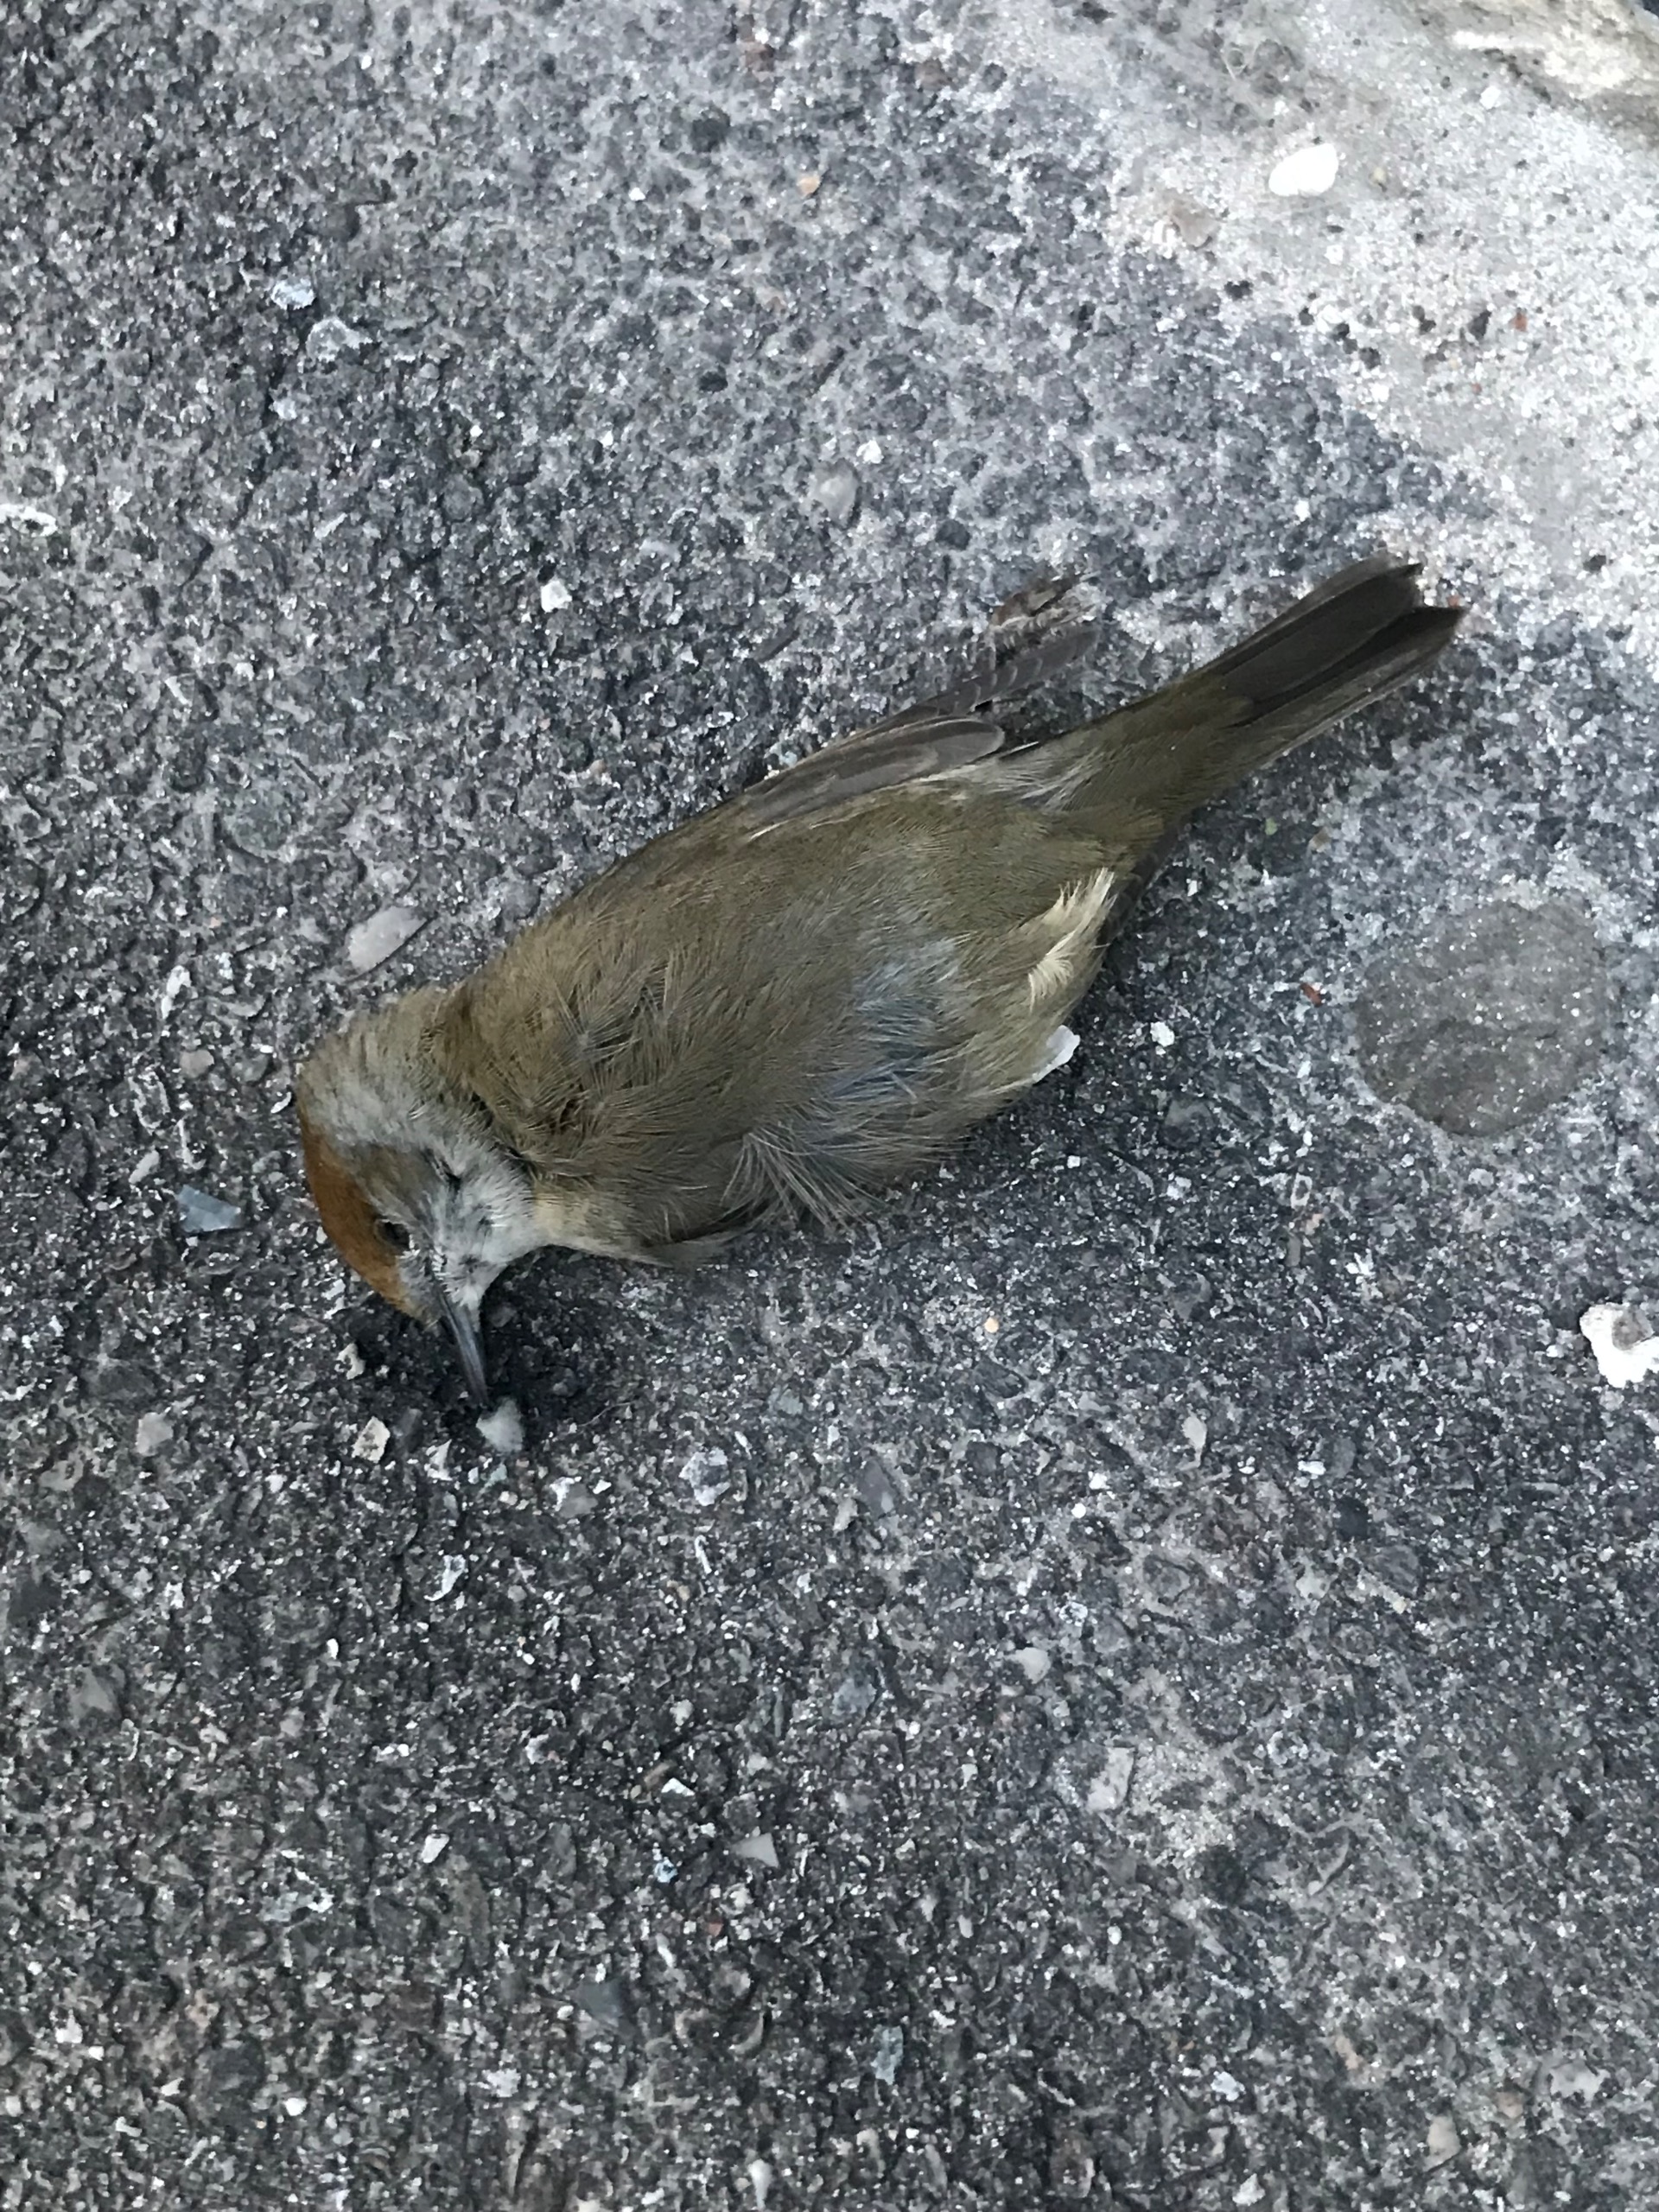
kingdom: Animalia
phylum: Chordata
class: Aves
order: Passeriformes
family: Sylviidae
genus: Sylvia
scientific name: Sylvia atricapilla
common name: Munk
